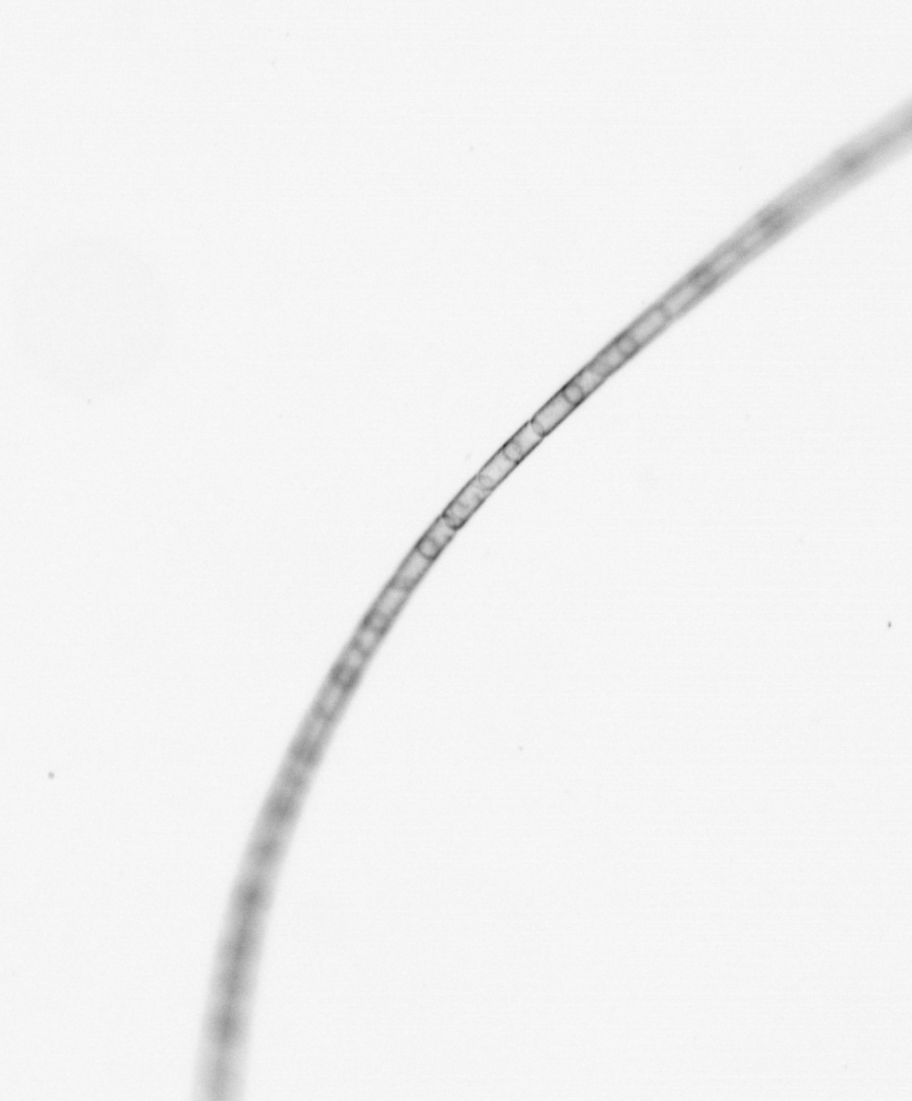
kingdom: Chromista
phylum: Ochrophyta
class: Bacillariophyceae
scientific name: Bacillariophyceae
